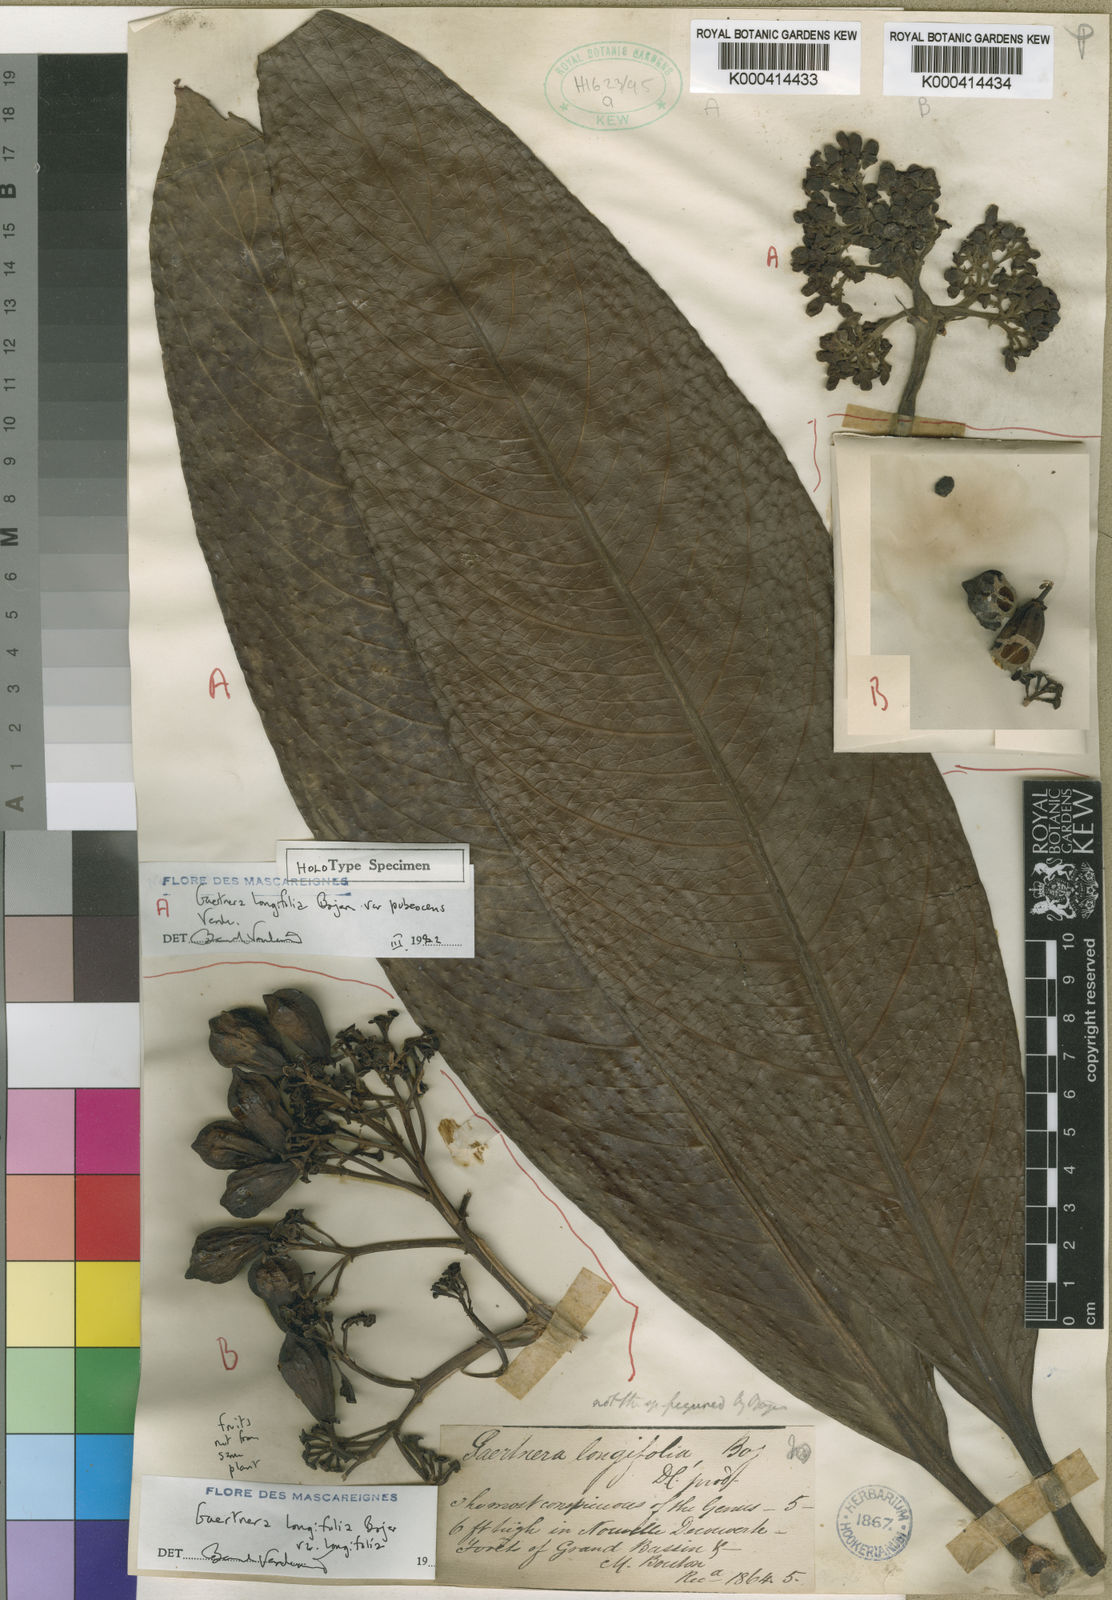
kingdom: Plantae
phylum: Tracheophyta
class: Magnoliopsida
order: Gentianales
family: Rubiaceae
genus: Gaertnera
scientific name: Gaertnera longifolia
